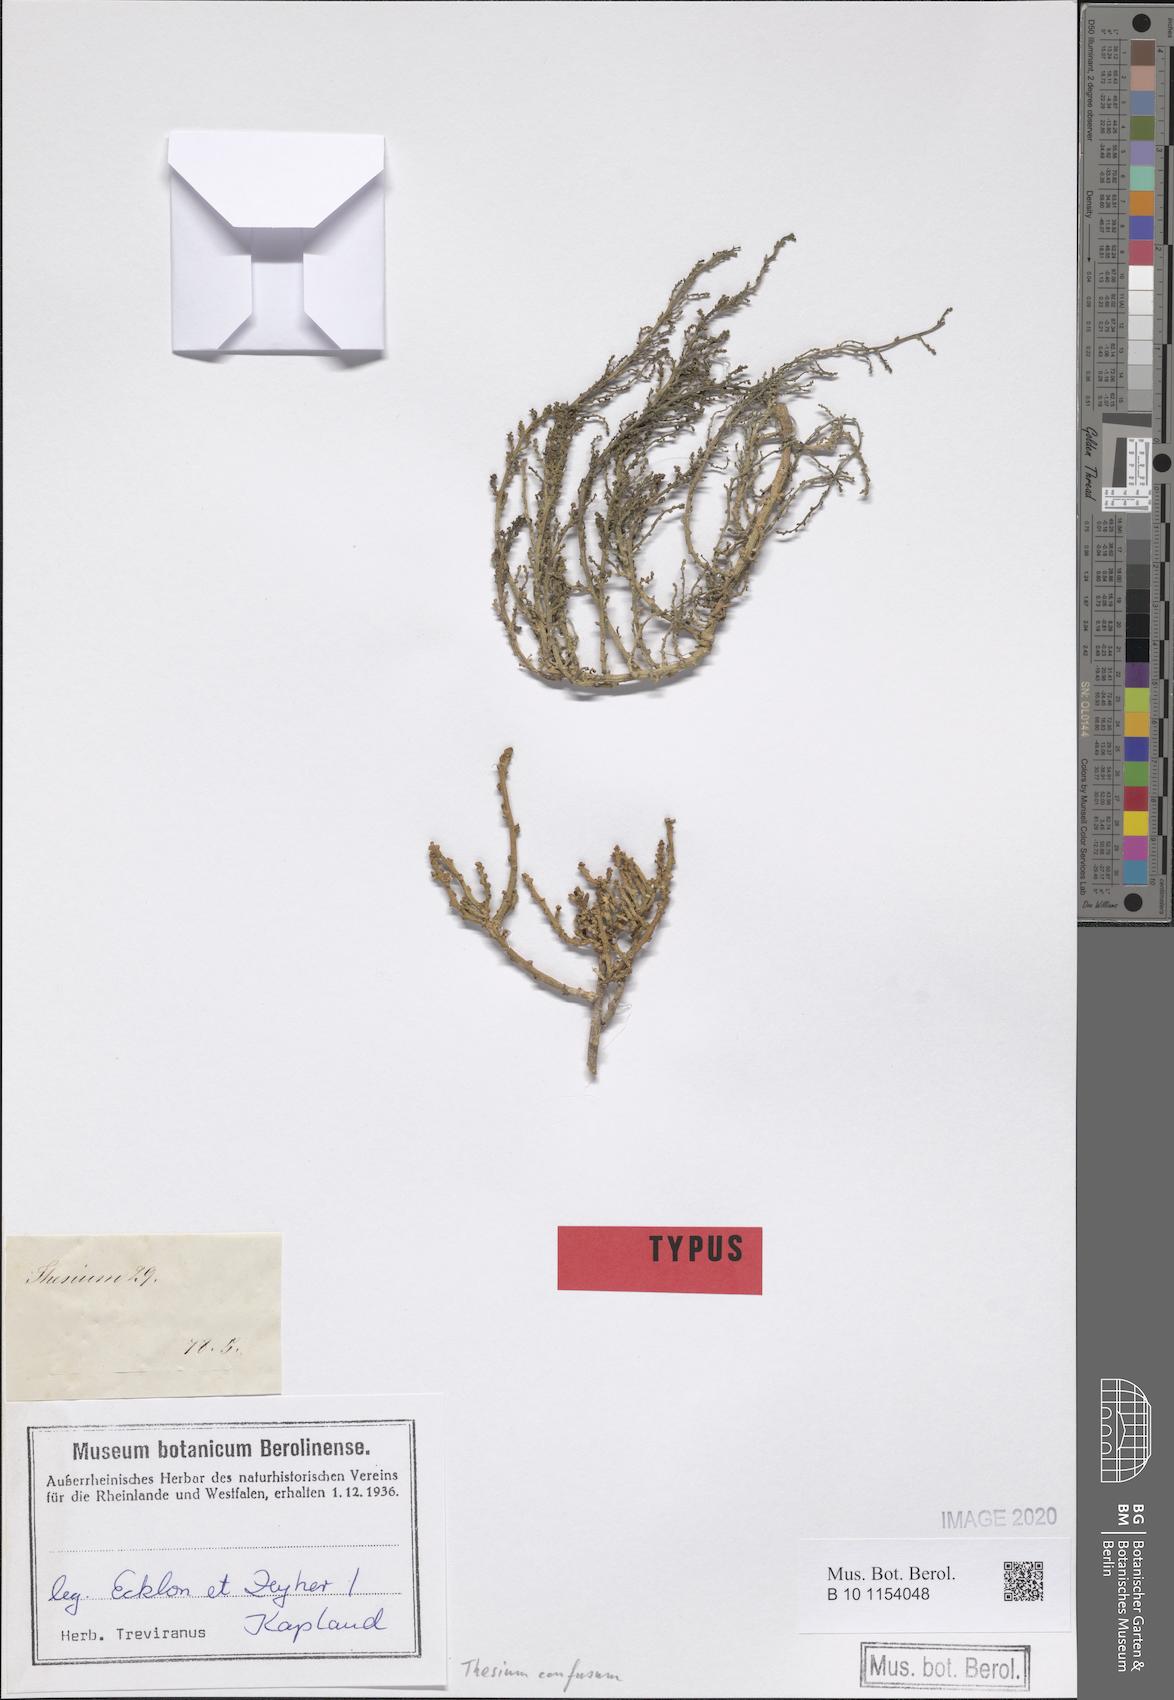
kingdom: Plantae
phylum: Tracheophyta
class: Magnoliopsida
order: Santalales
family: Thesiaceae
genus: Thesium
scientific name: Thesium confusum
